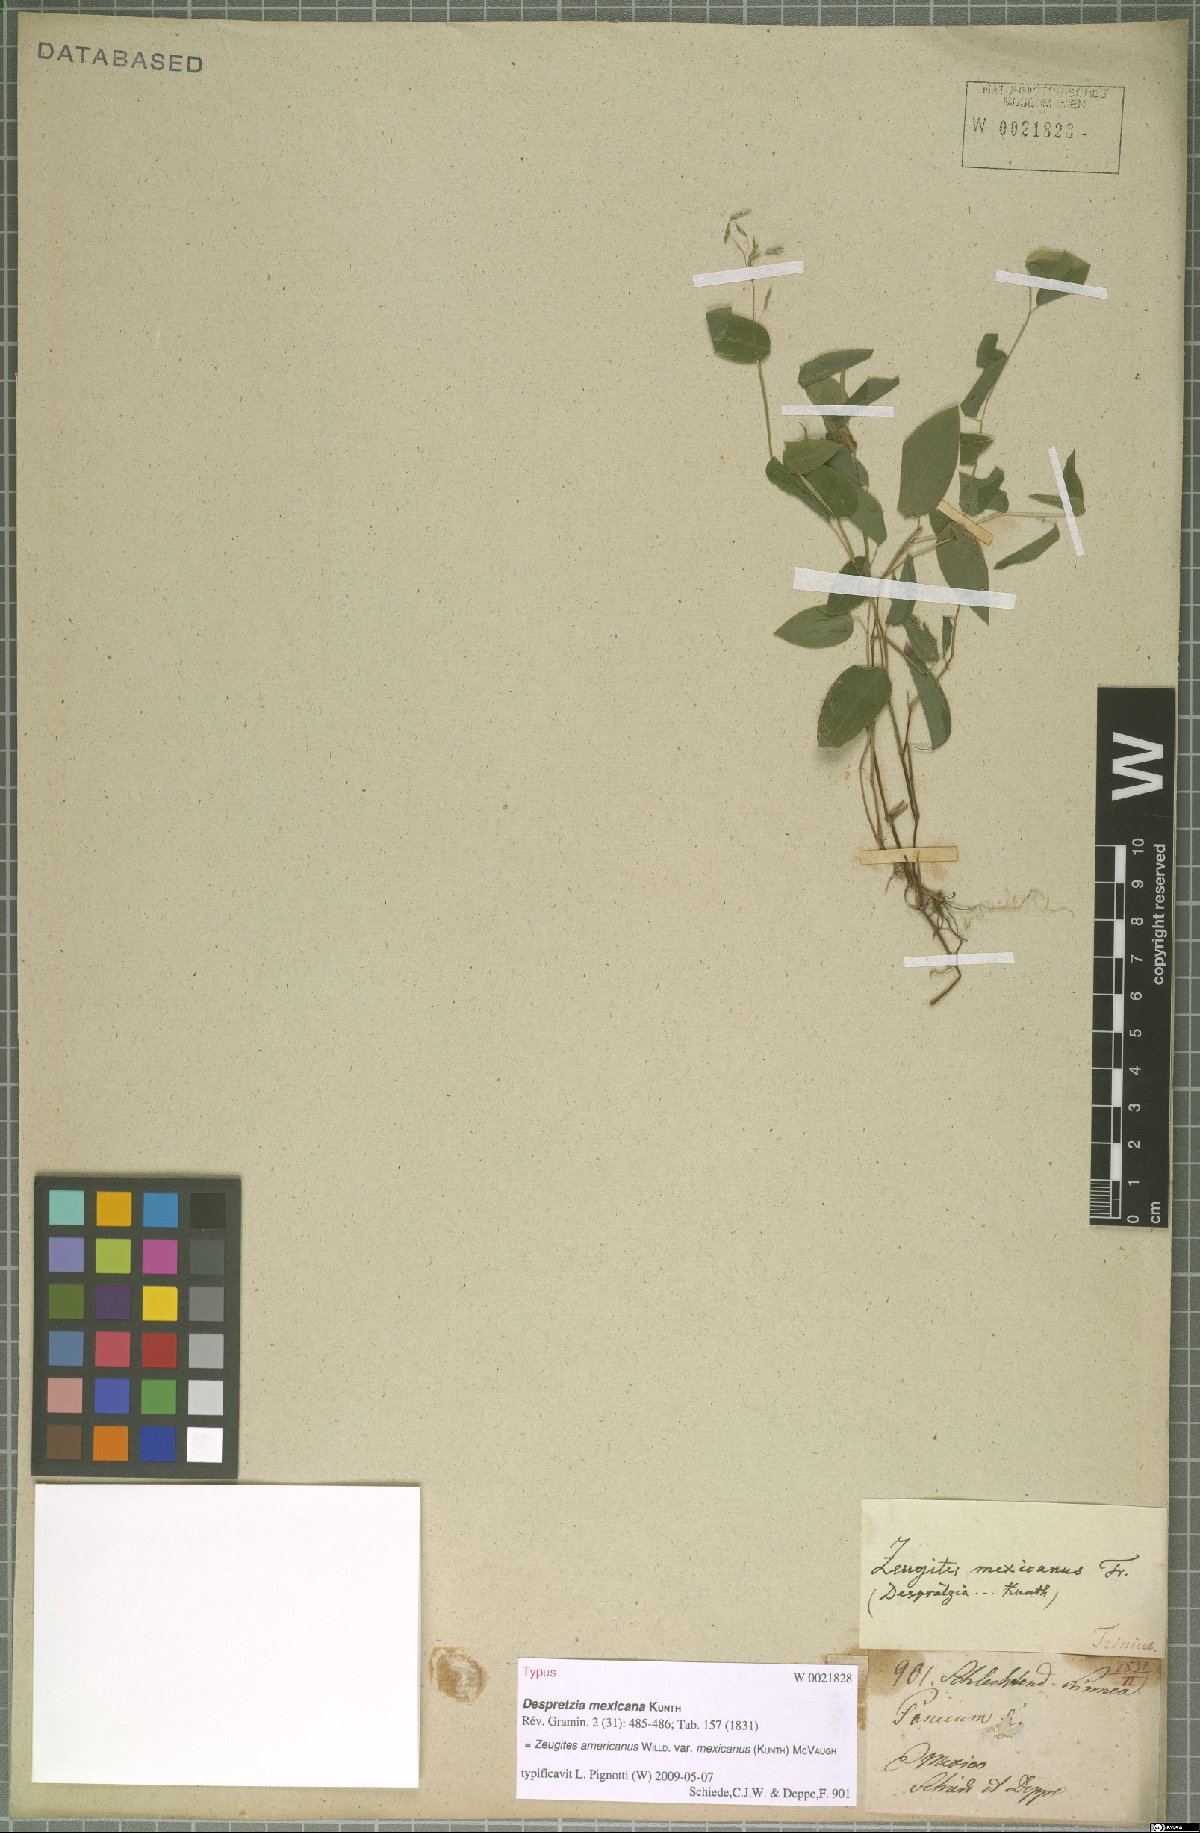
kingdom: Plantae
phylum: Tracheophyta
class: Liliopsida
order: Poales
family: Poaceae
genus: Zeugites
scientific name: Zeugites americanus
